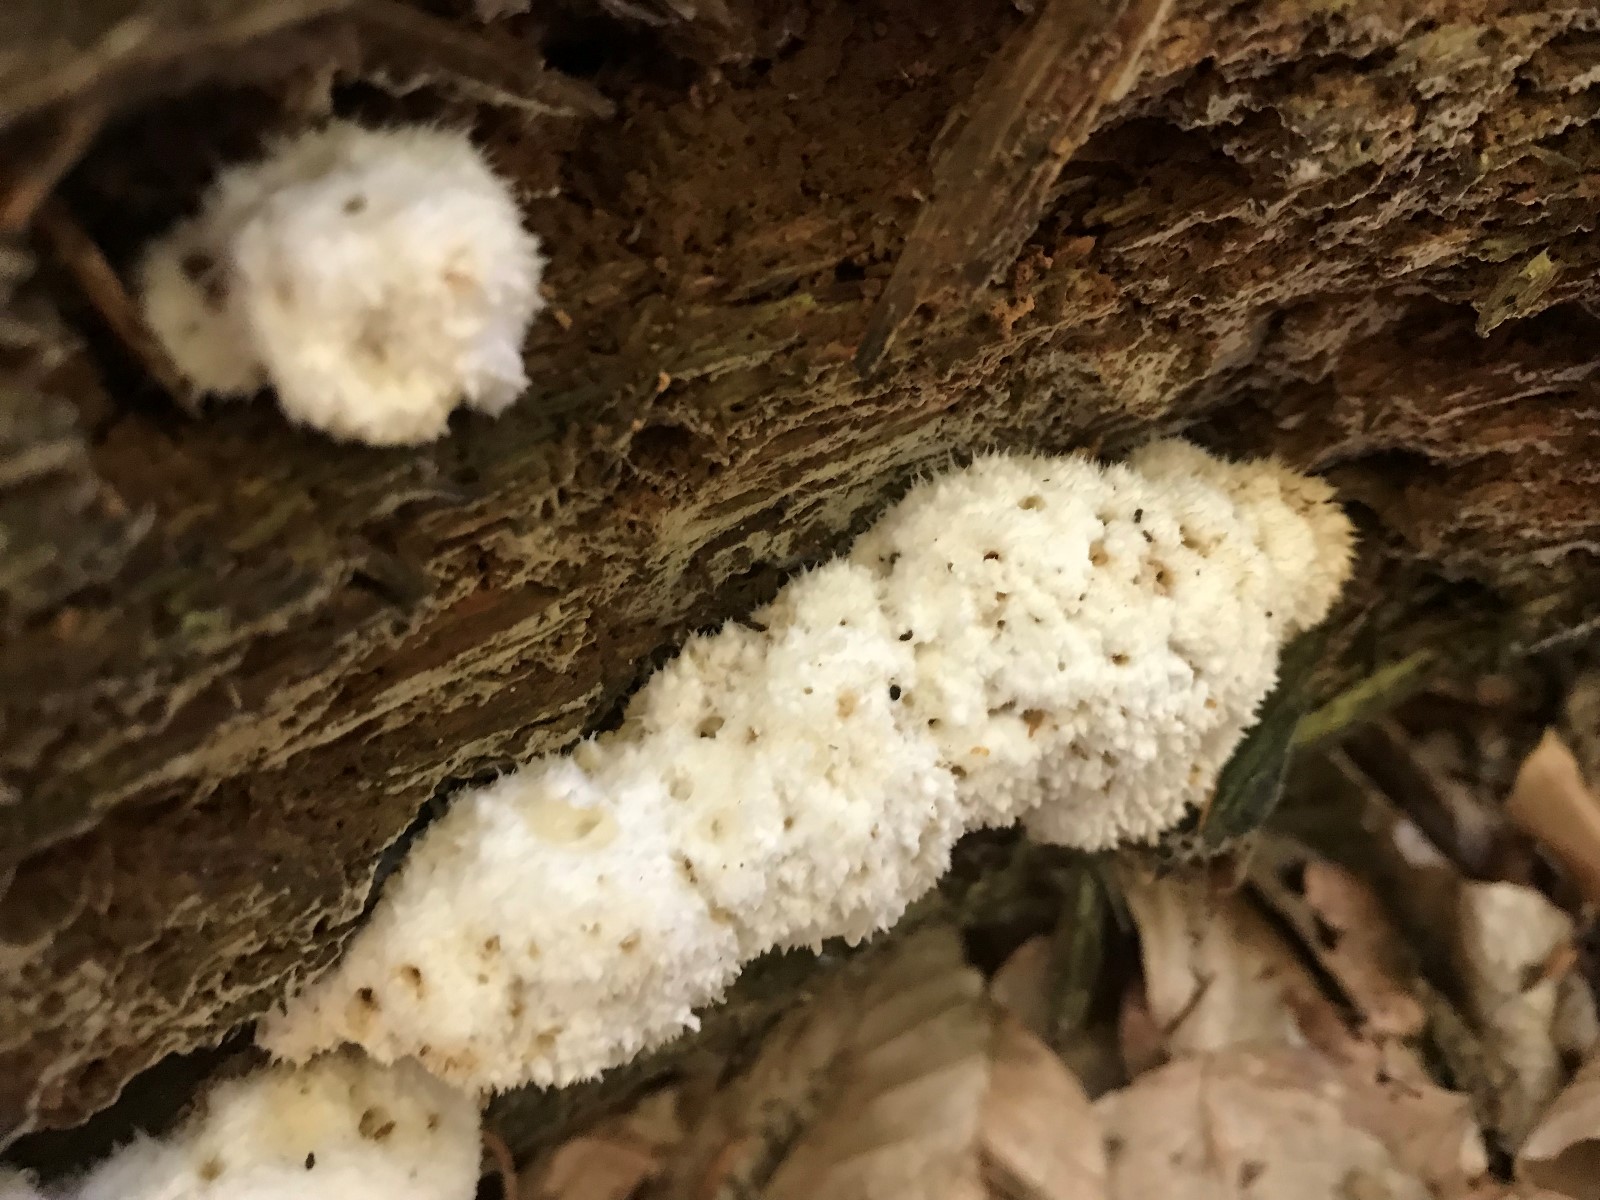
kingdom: Fungi
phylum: Basidiomycota
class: Agaricomycetes
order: Polyporales
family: Dacryobolaceae
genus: Postia
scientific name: Postia ptychogaster
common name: støvende kødporesvamp
